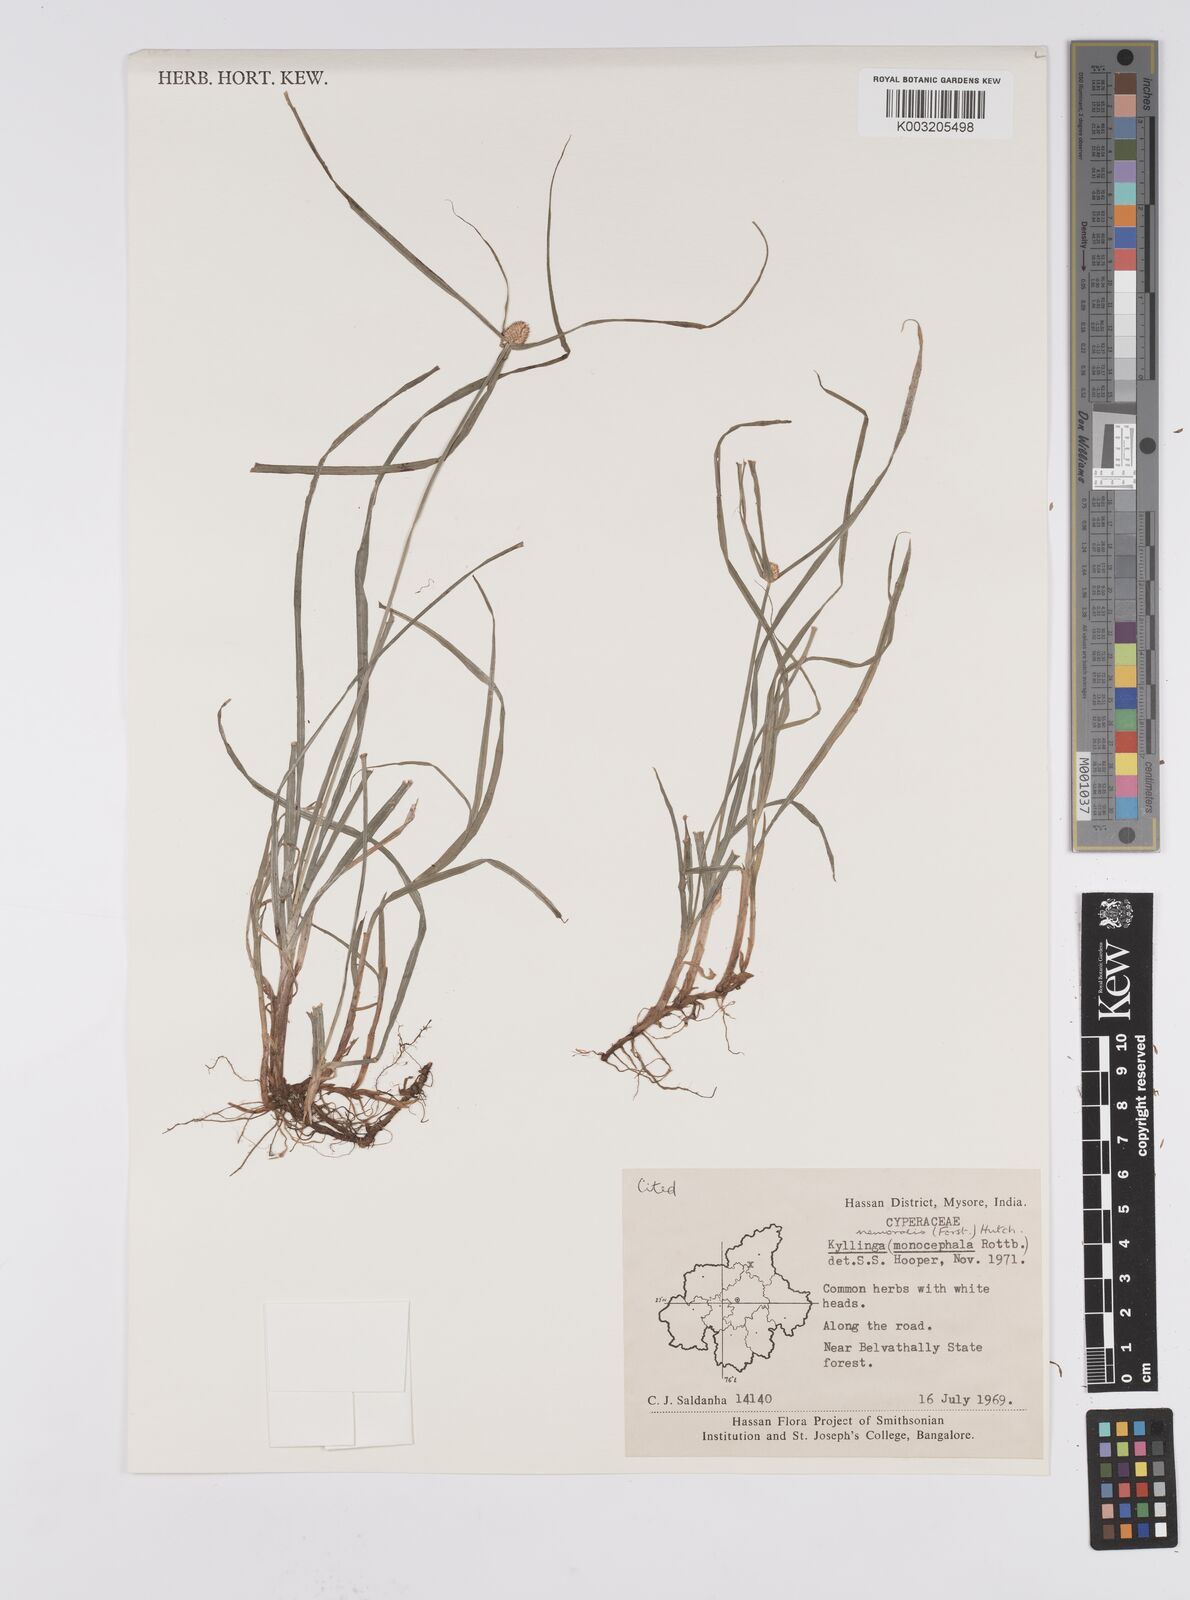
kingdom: Plantae
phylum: Tracheophyta
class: Liliopsida
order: Poales
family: Cyperaceae
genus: Cyperus
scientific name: Cyperus nemoralis
